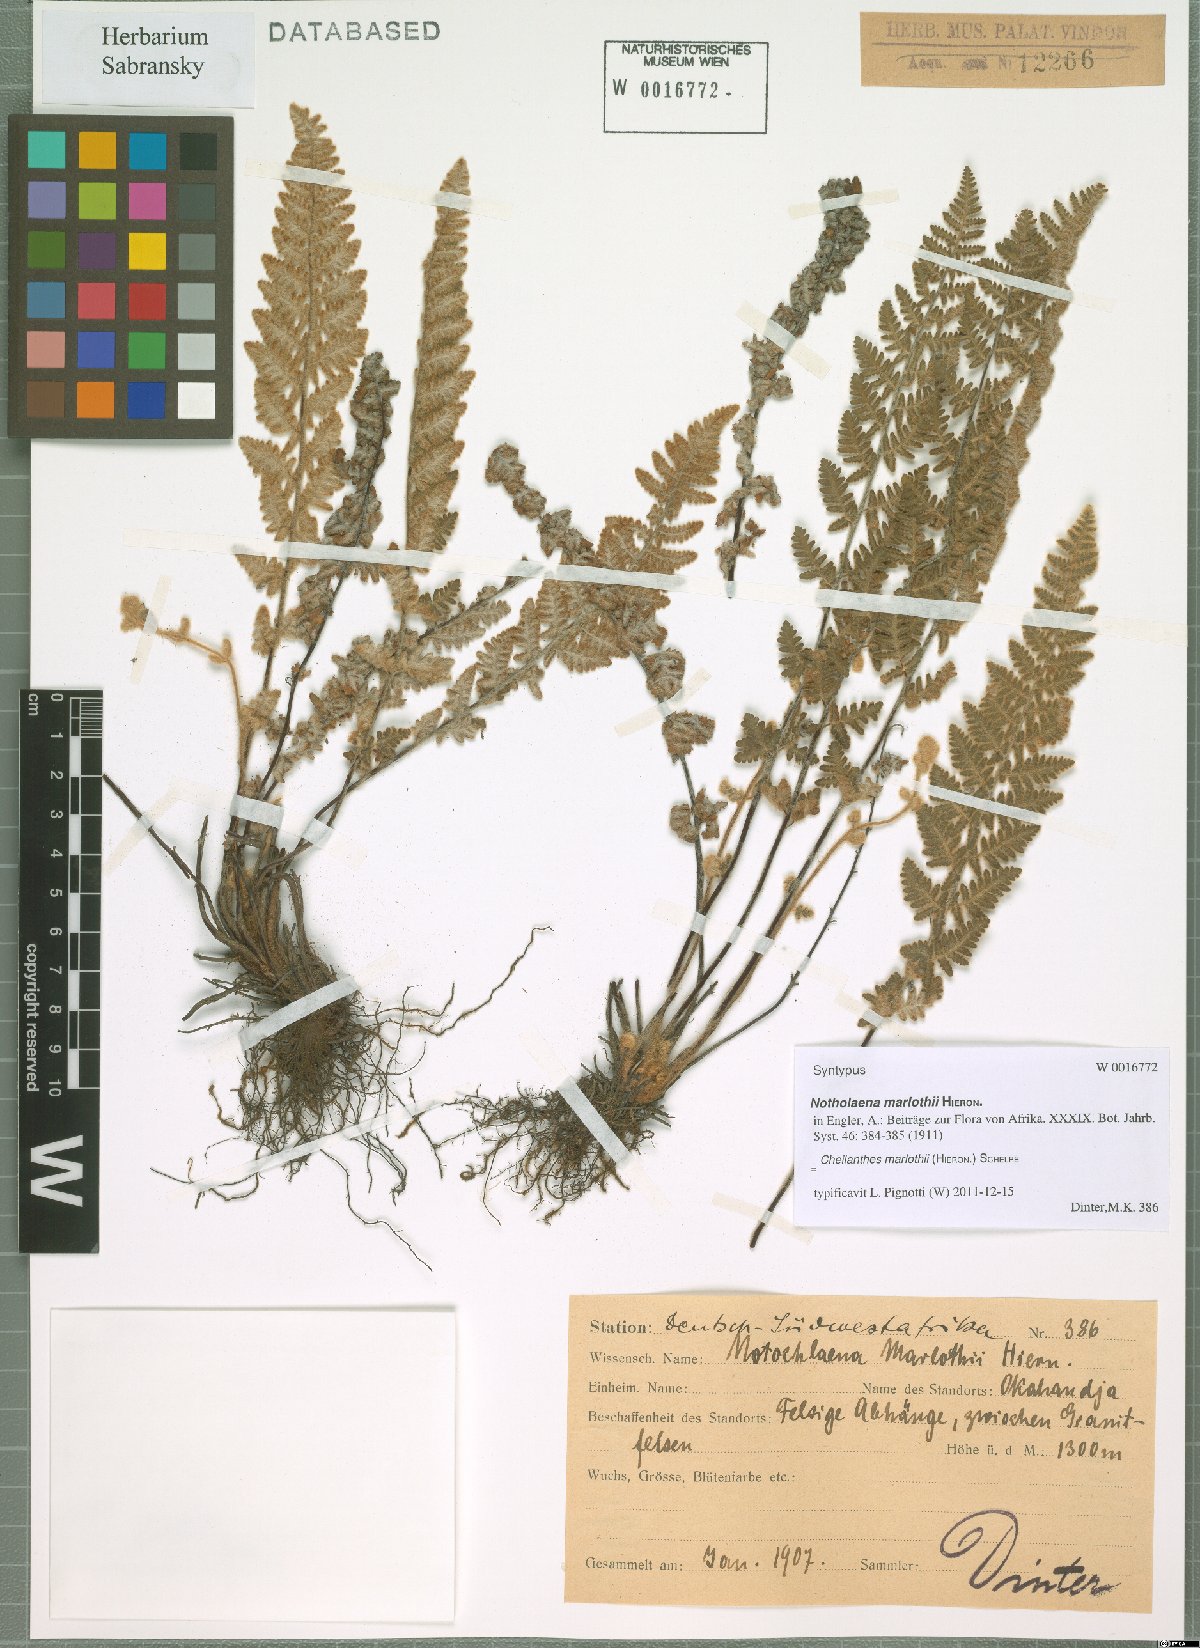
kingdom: Plantae
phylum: Tracheophyta
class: Polypodiopsida
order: Polypodiales
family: Pteridaceae
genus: Cheilanthes
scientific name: Cheilanthes marlothii
